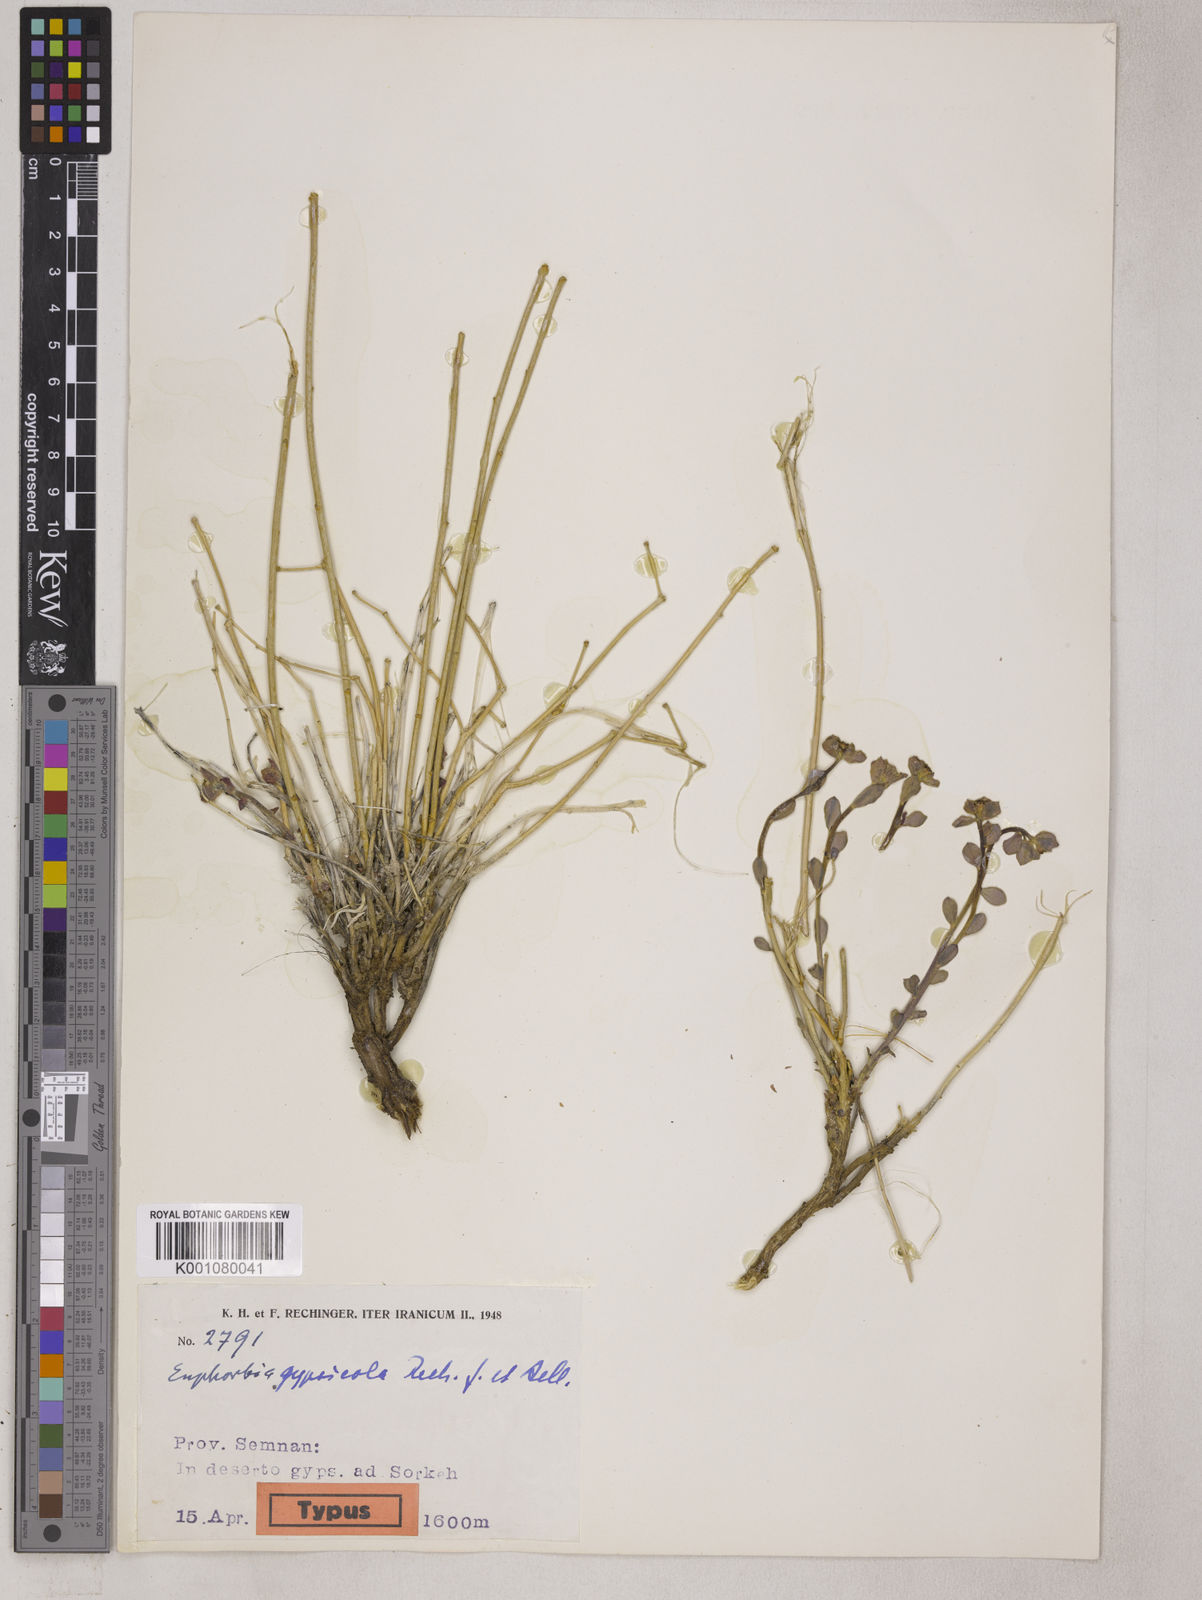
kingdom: Plantae
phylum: Tracheophyta
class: Magnoliopsida
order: Malpighiales
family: Euphorbiaceae
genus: Euphorbia
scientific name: Euphorbia gypsicola
